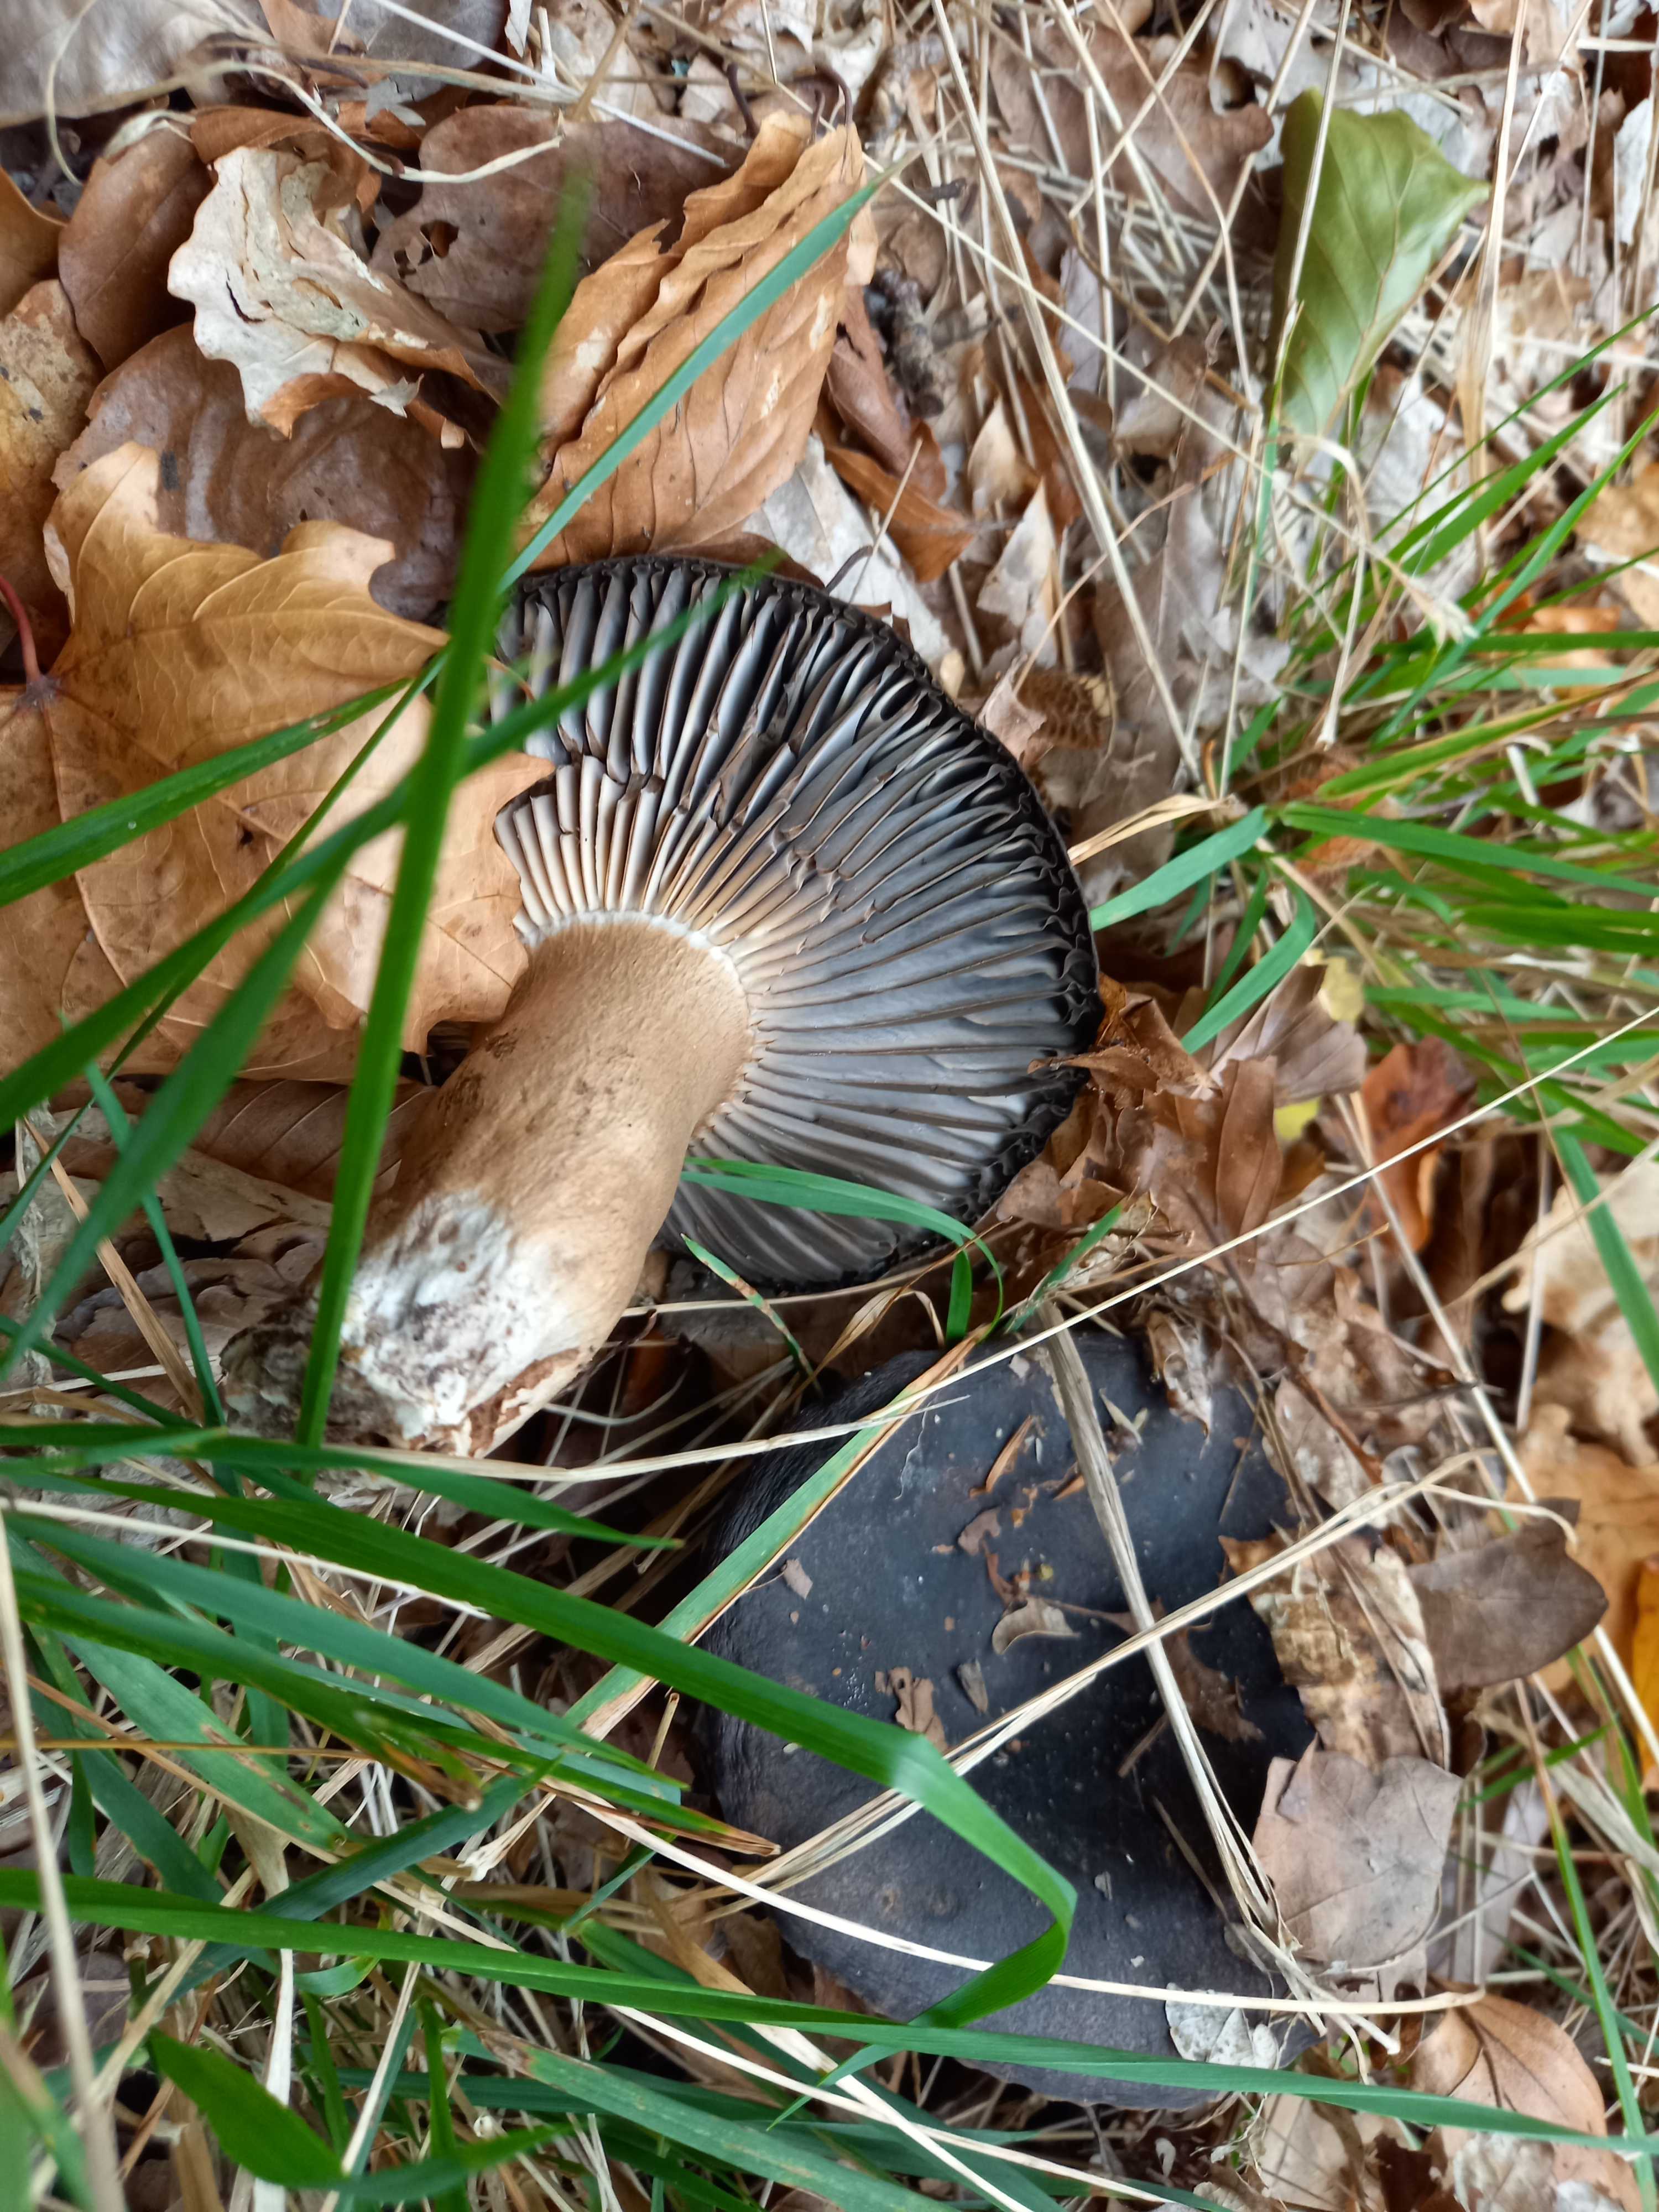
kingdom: Fungi
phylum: Basidiomycota
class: Agaricomycetes
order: Russulales
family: Russulaceae
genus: Russula
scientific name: Russula adusta
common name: sværtende skørhat
